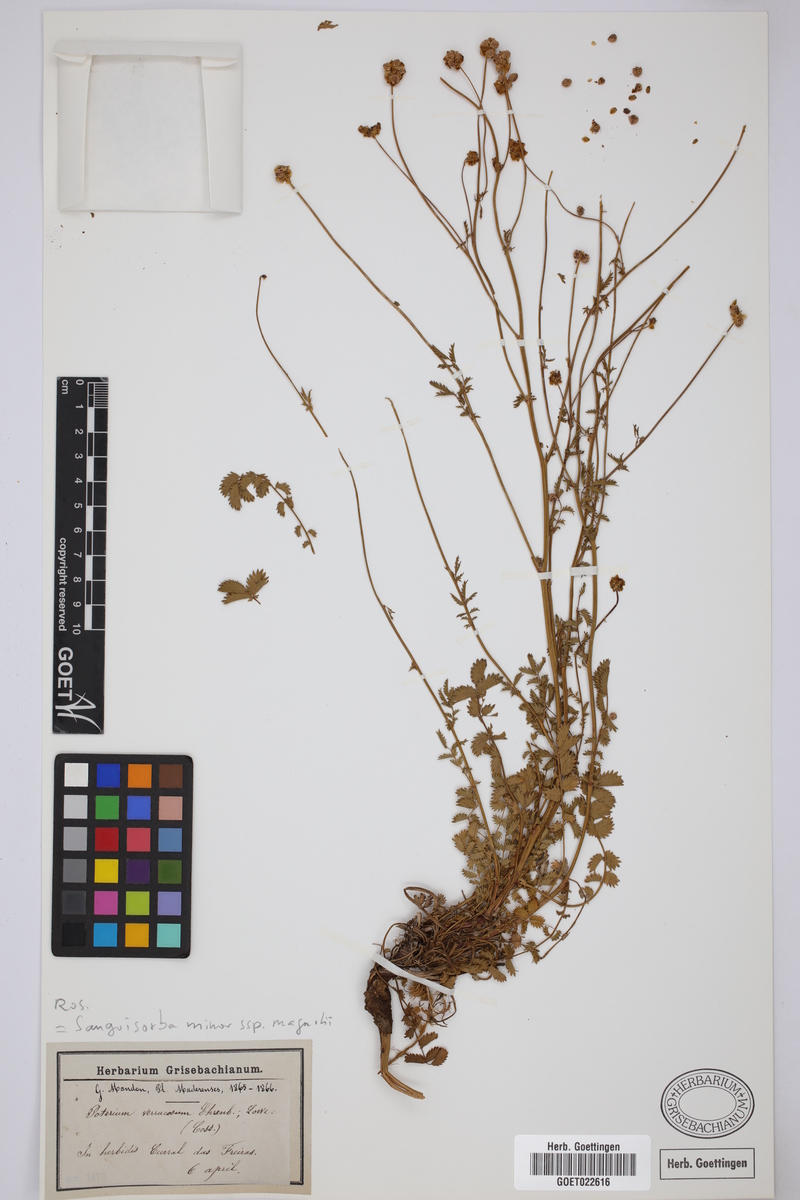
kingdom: Plantae
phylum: Tracheophyta
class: Magnoliopsida
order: Rosales
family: Rosaceae
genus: Poterium
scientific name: Poterium verrucosum
